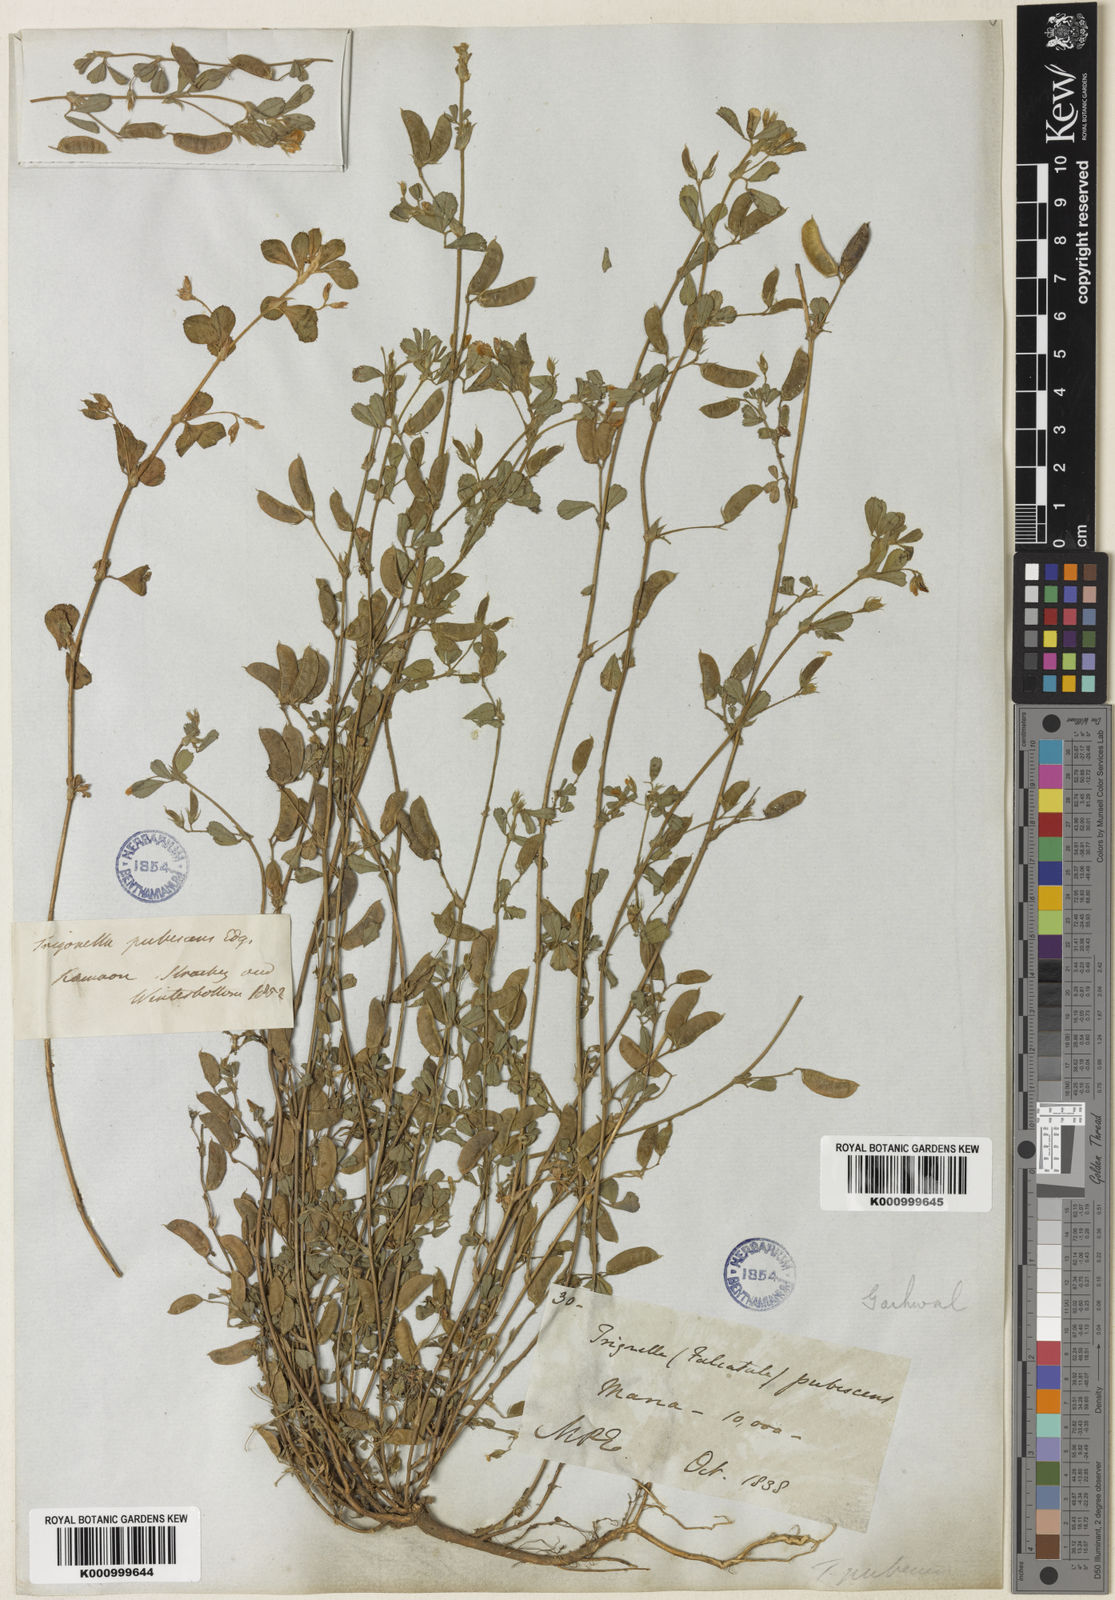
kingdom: Plantae
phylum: Tracheophyta
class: Magnoliopsida
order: Fabales
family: Fabaceae
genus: Medicago
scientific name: Medicago
